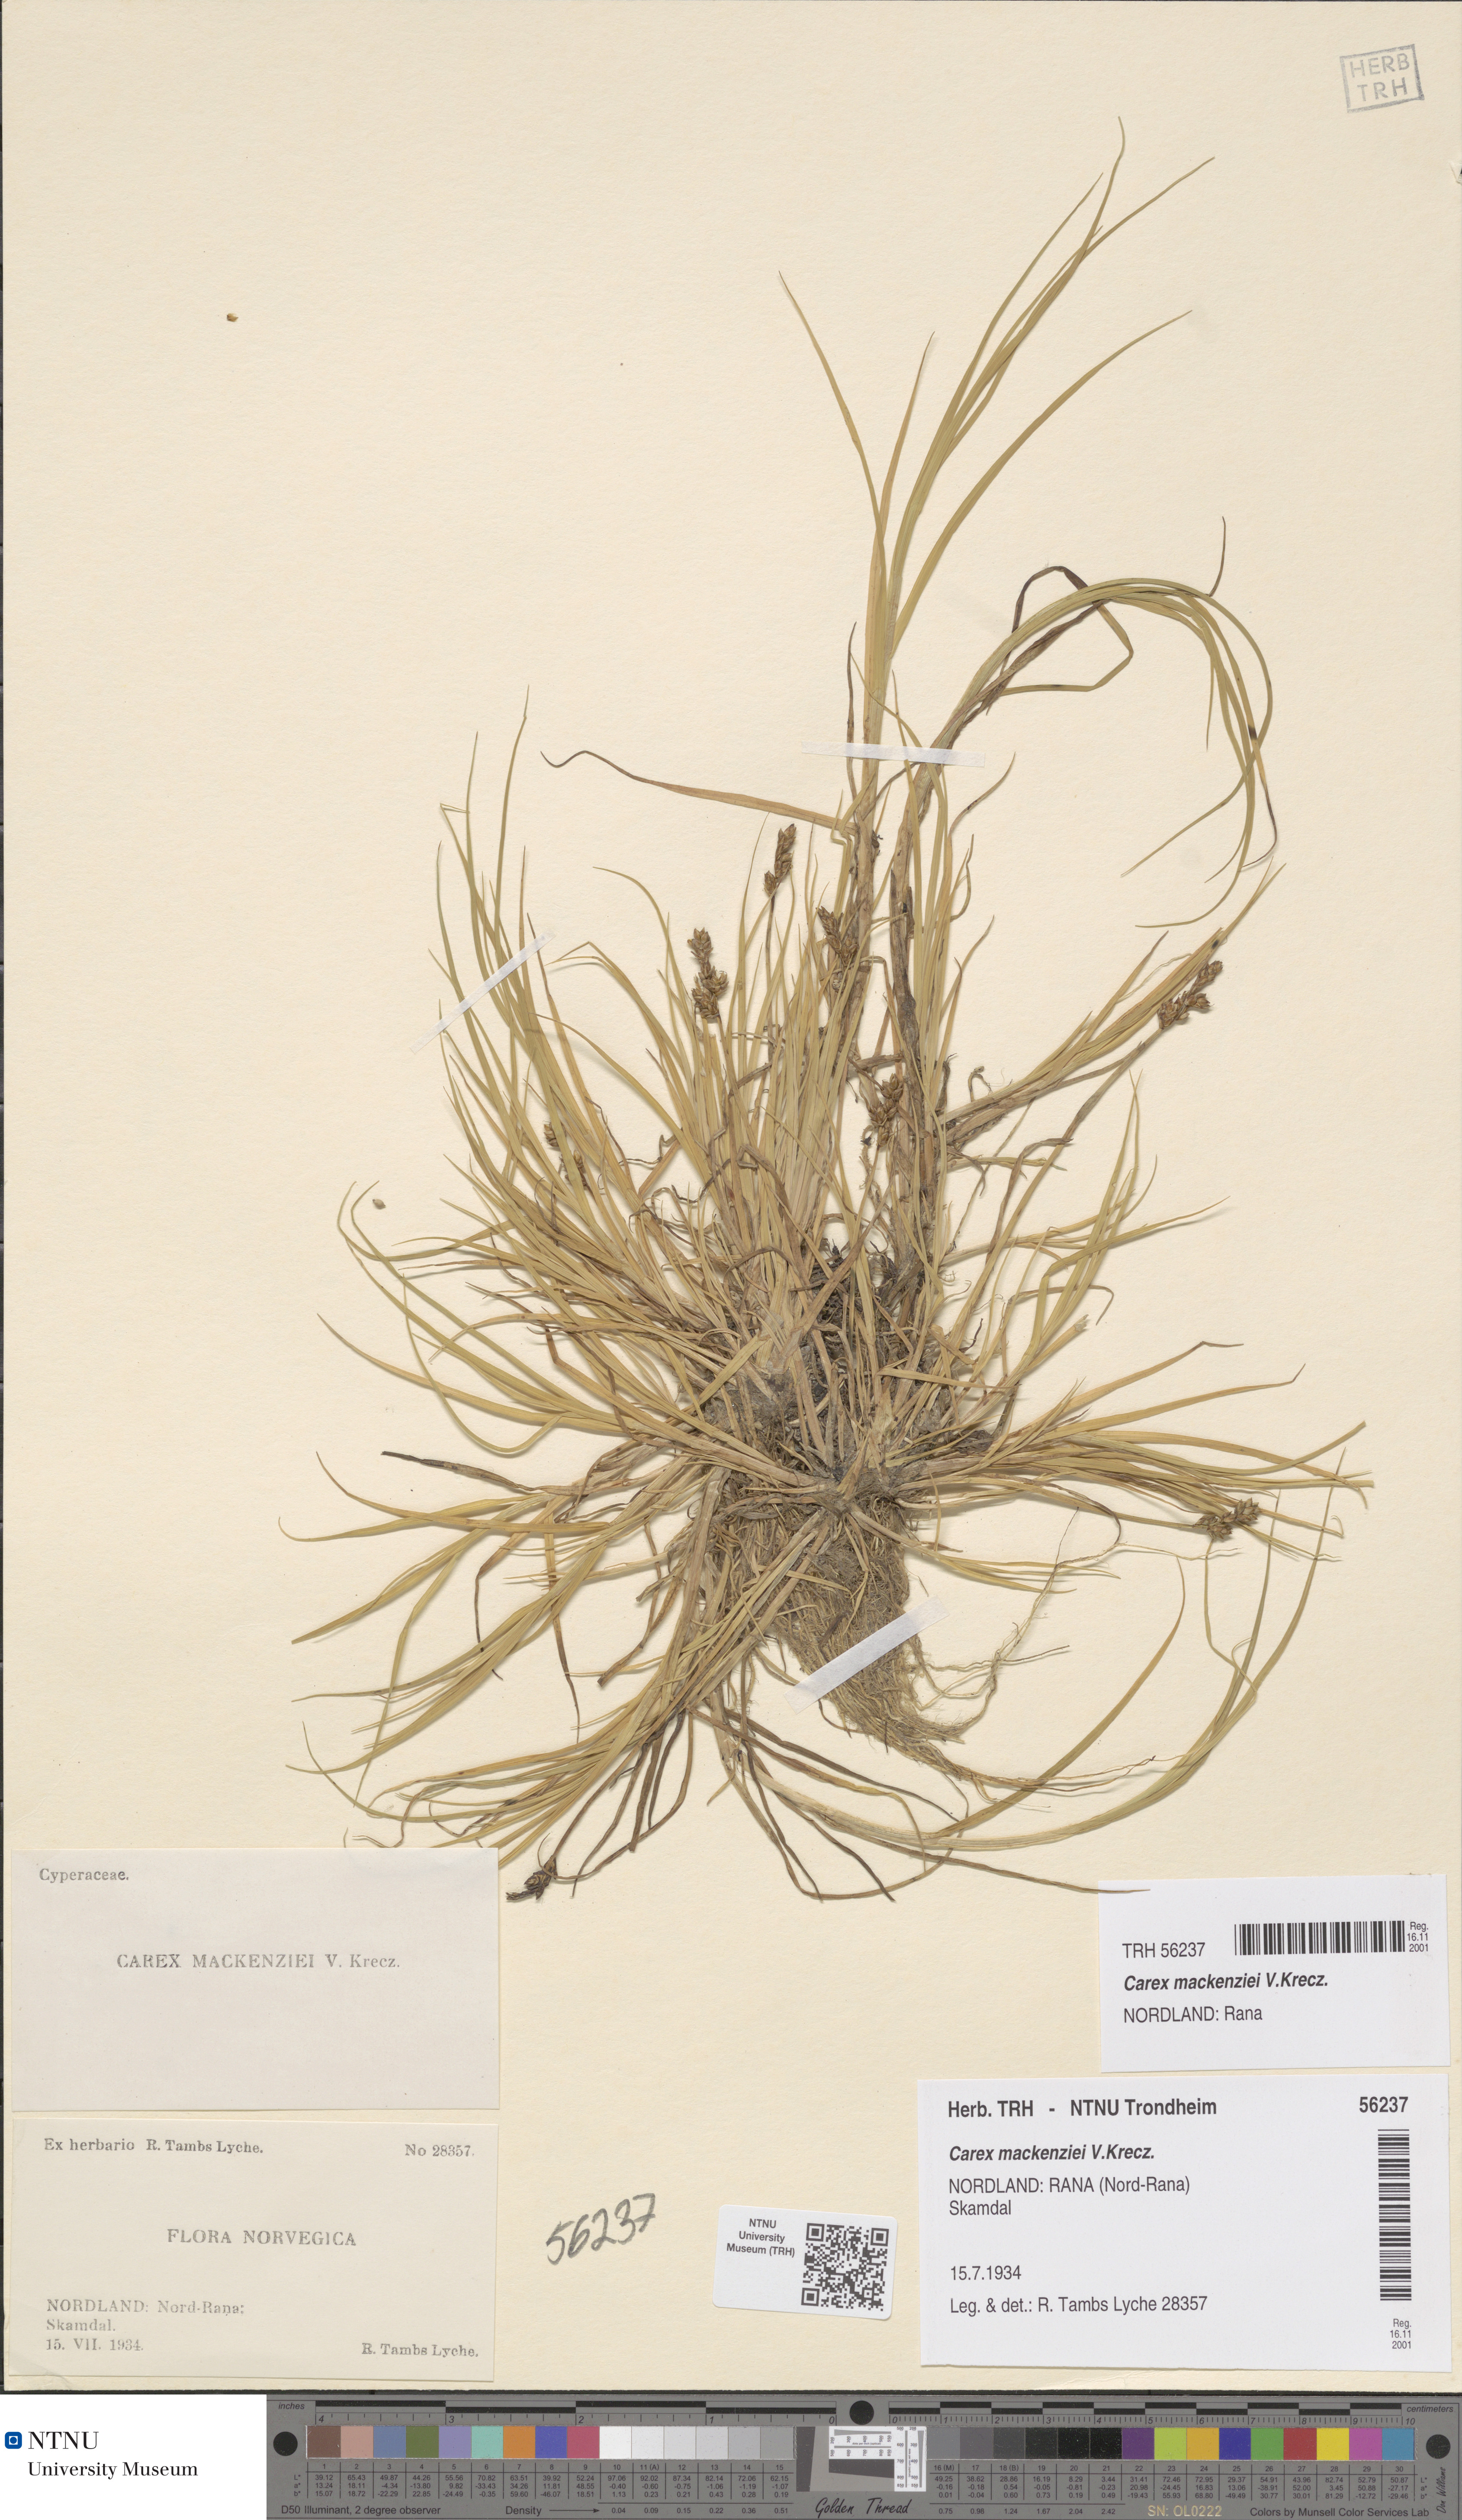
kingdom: Plantae
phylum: Tracheophyta
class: Liliopsida
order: Poales
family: Cyperaceae
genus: Carex
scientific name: Carex mackenziei
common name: Mackenzie's sedge
